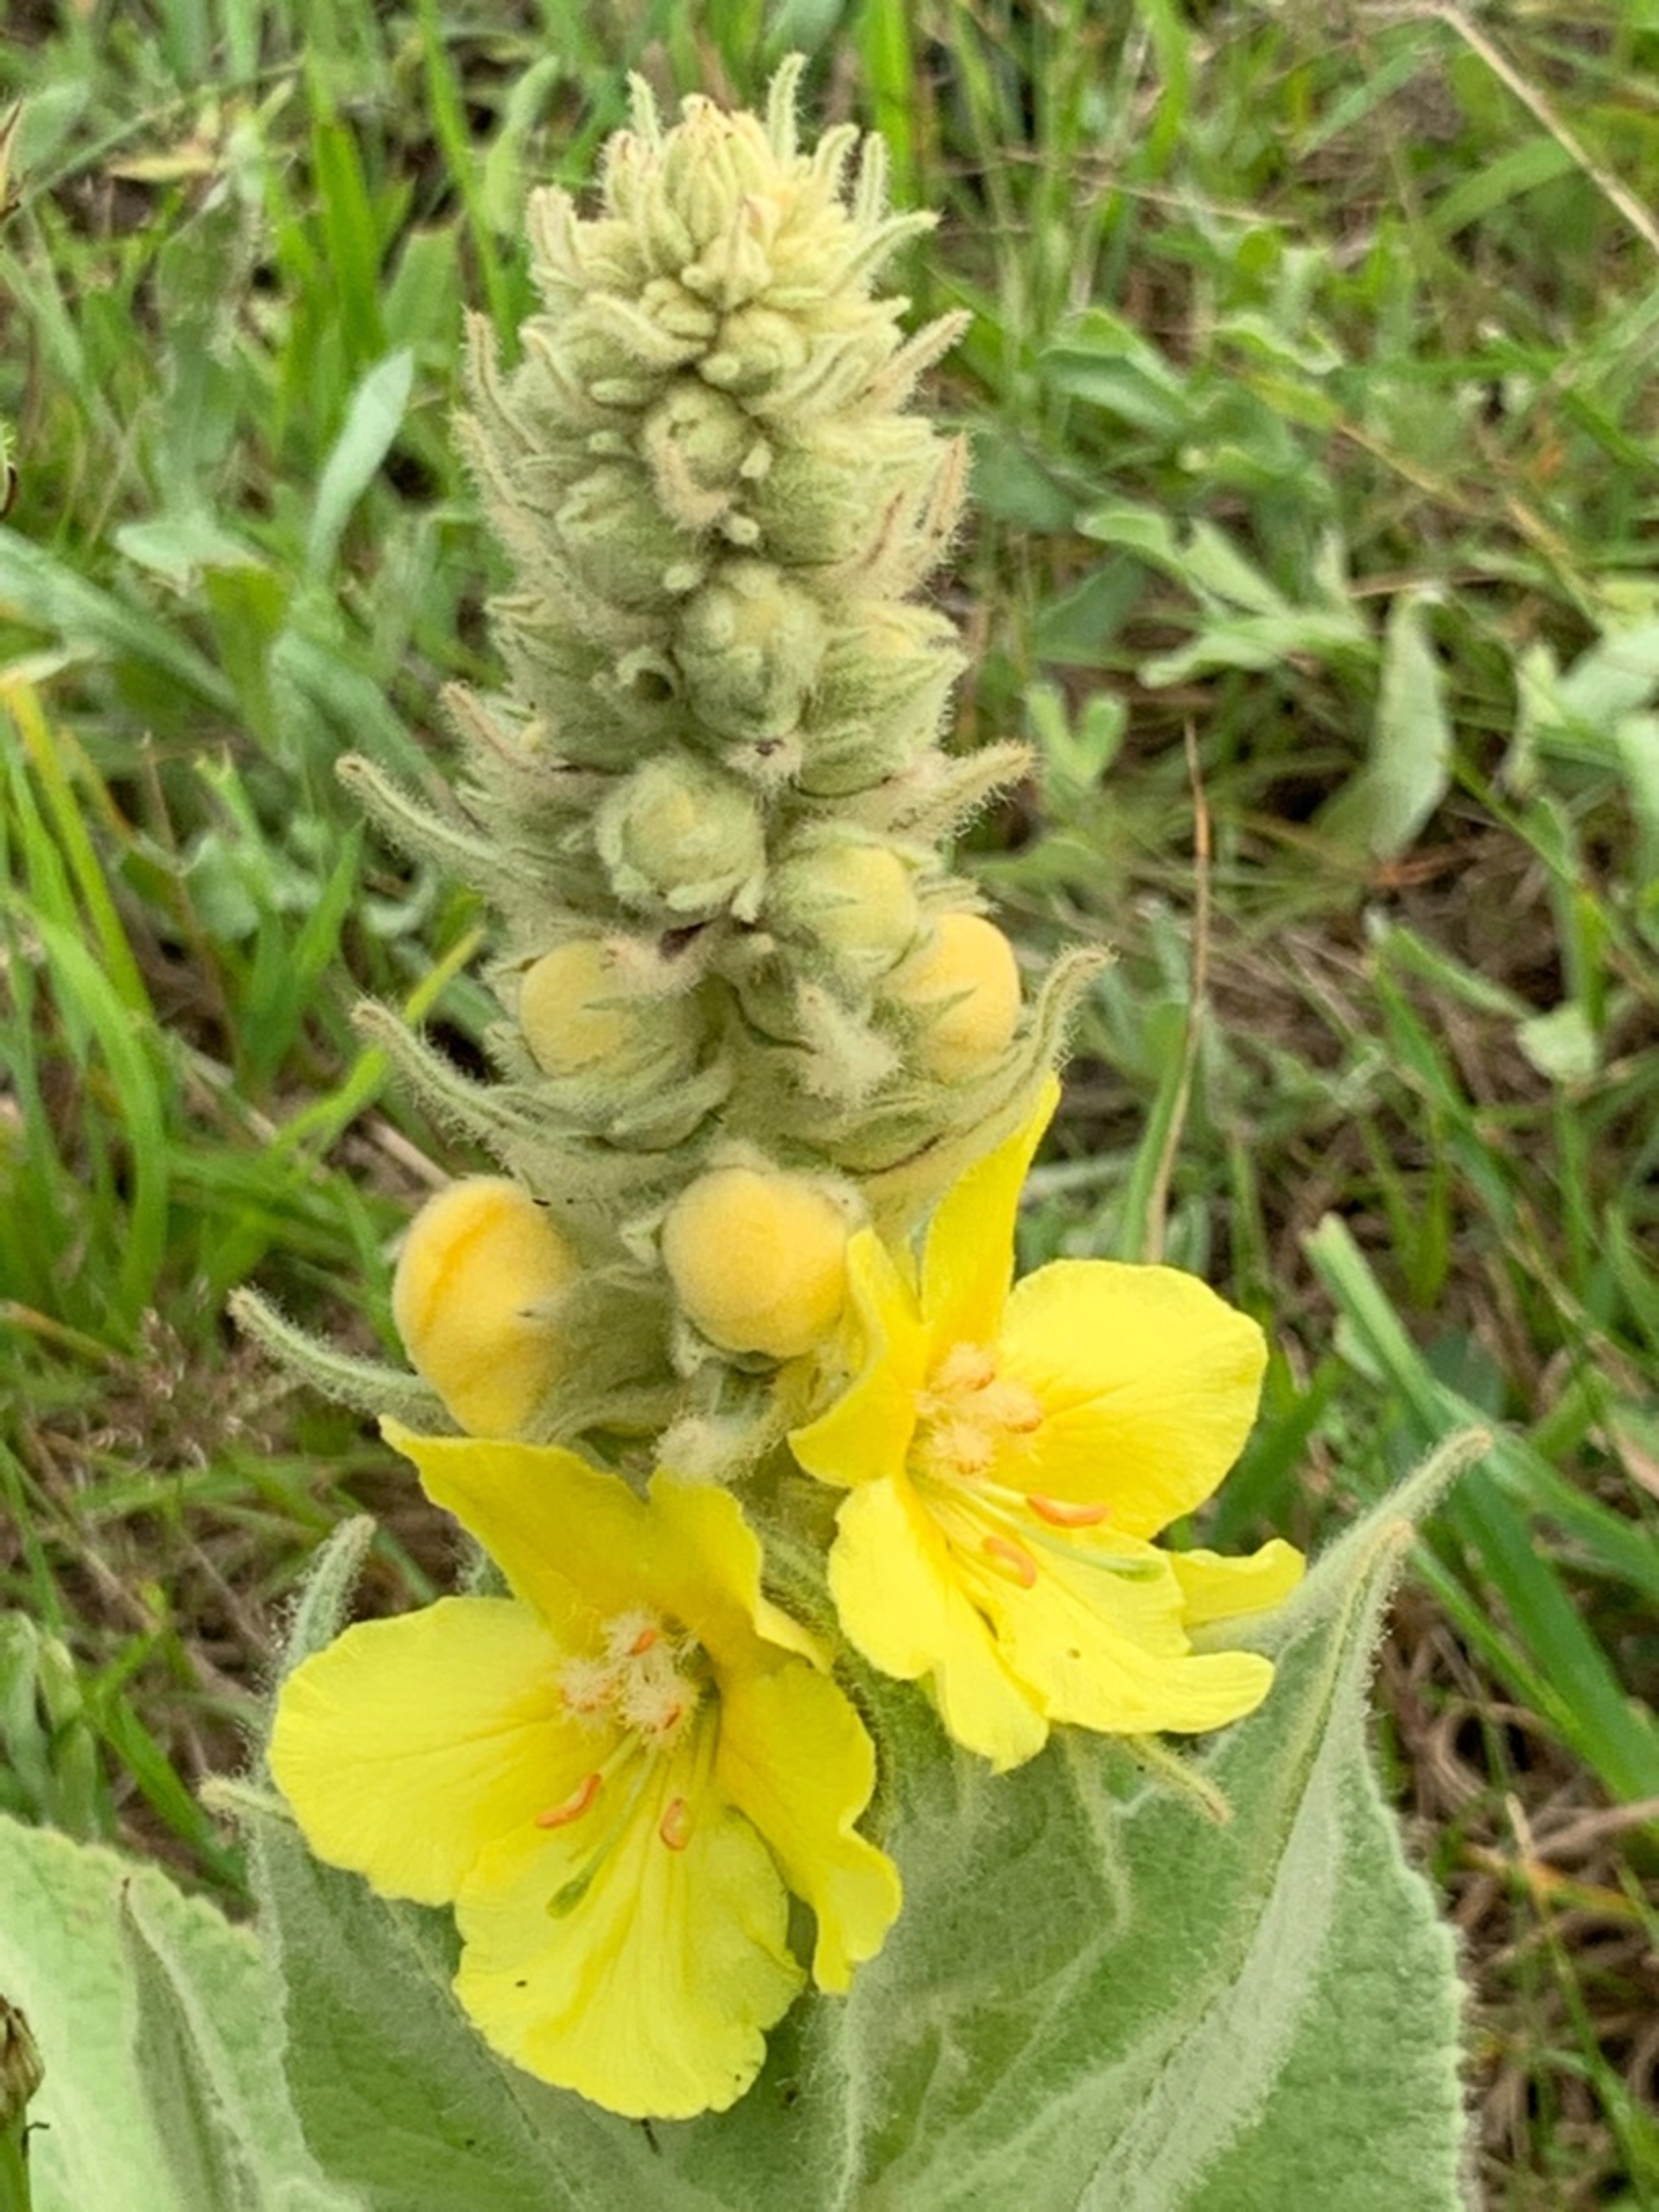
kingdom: Plantae
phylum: Tracheophyta
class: Magnoliopsida
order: Lamiales
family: Scrophulariaceae
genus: Verbascum
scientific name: Verbascum densiflorum
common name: Uldbladet kongelys
